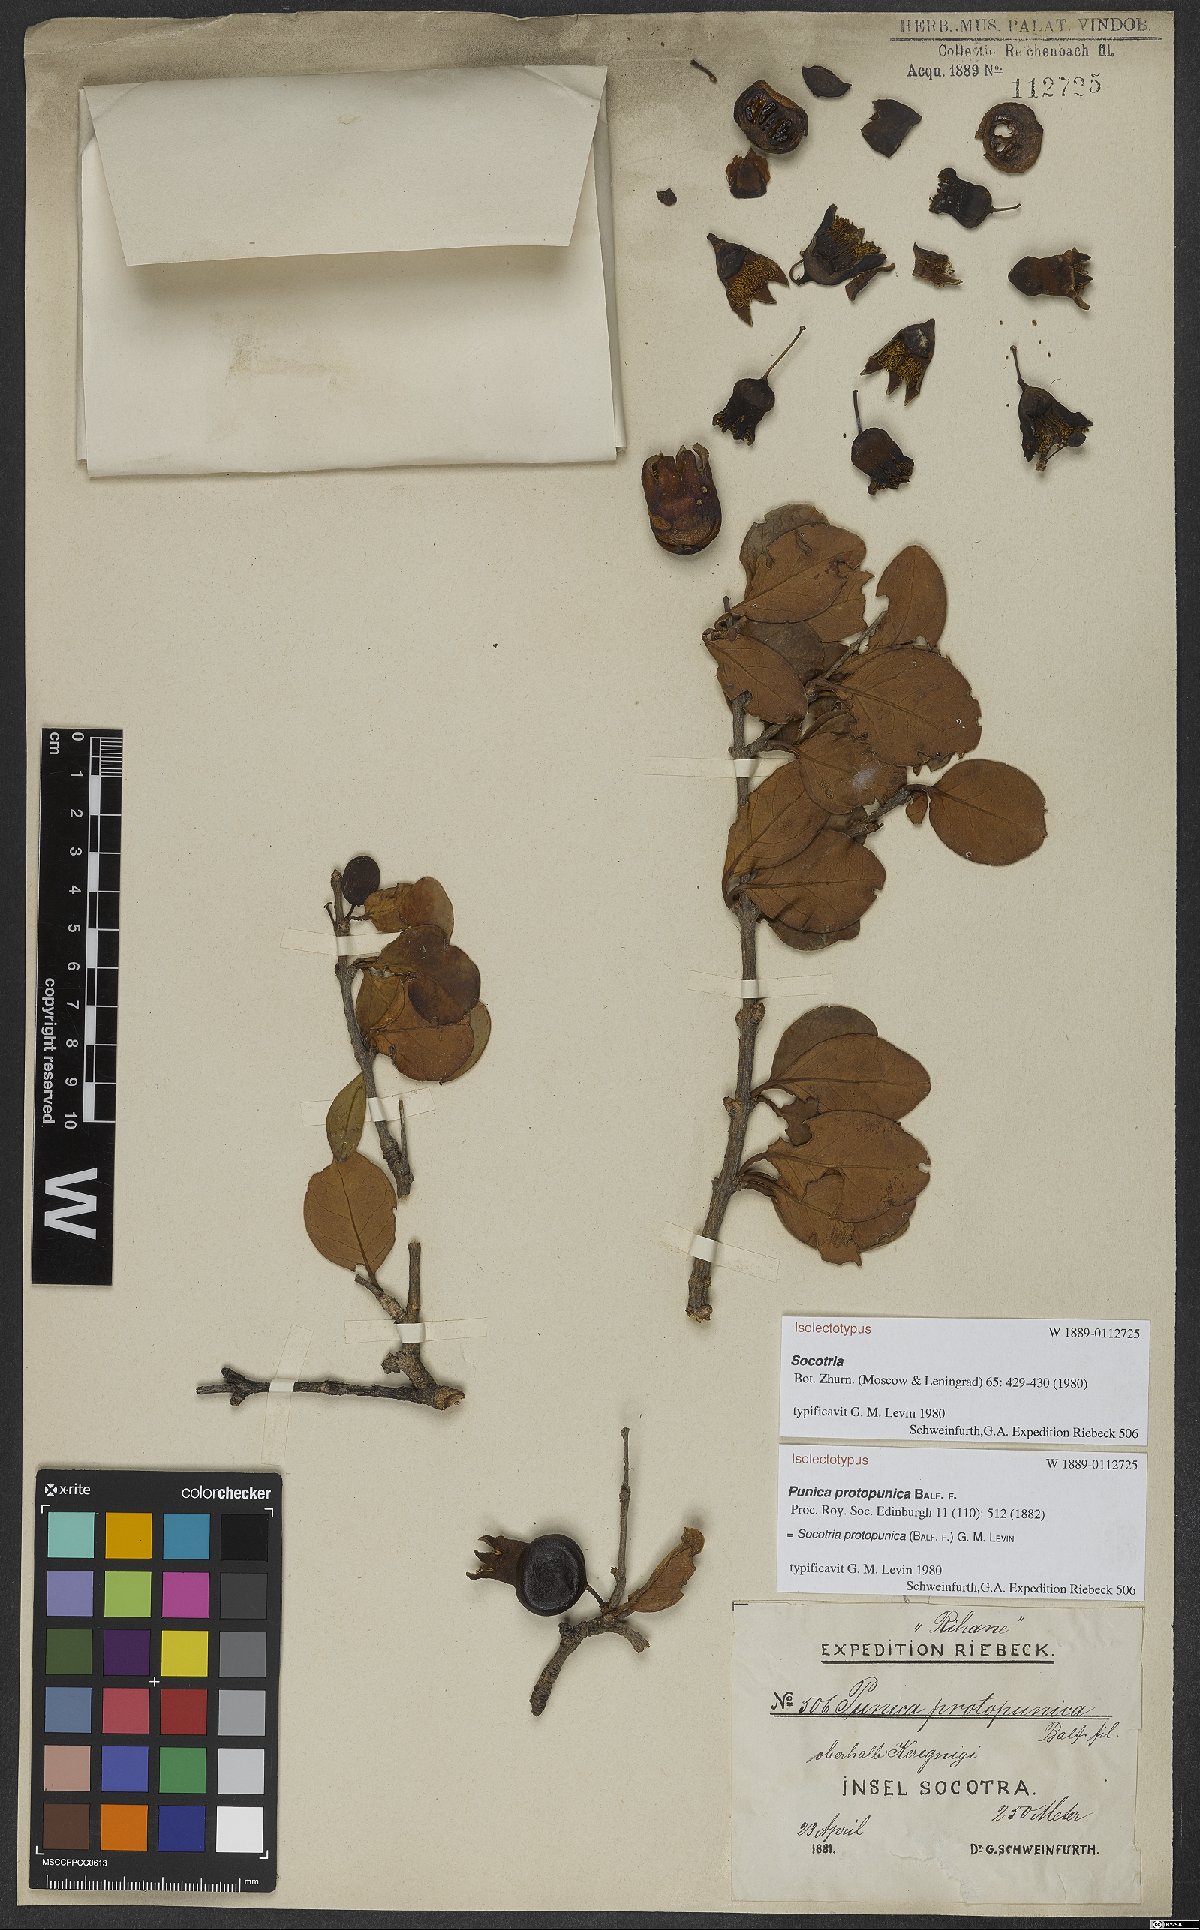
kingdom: Plantae
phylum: Tracheophyta
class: Magnoliopsida
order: Myrtales
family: Lythraceae
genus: Punica
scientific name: Punica protopunica
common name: Pomegranate tree
